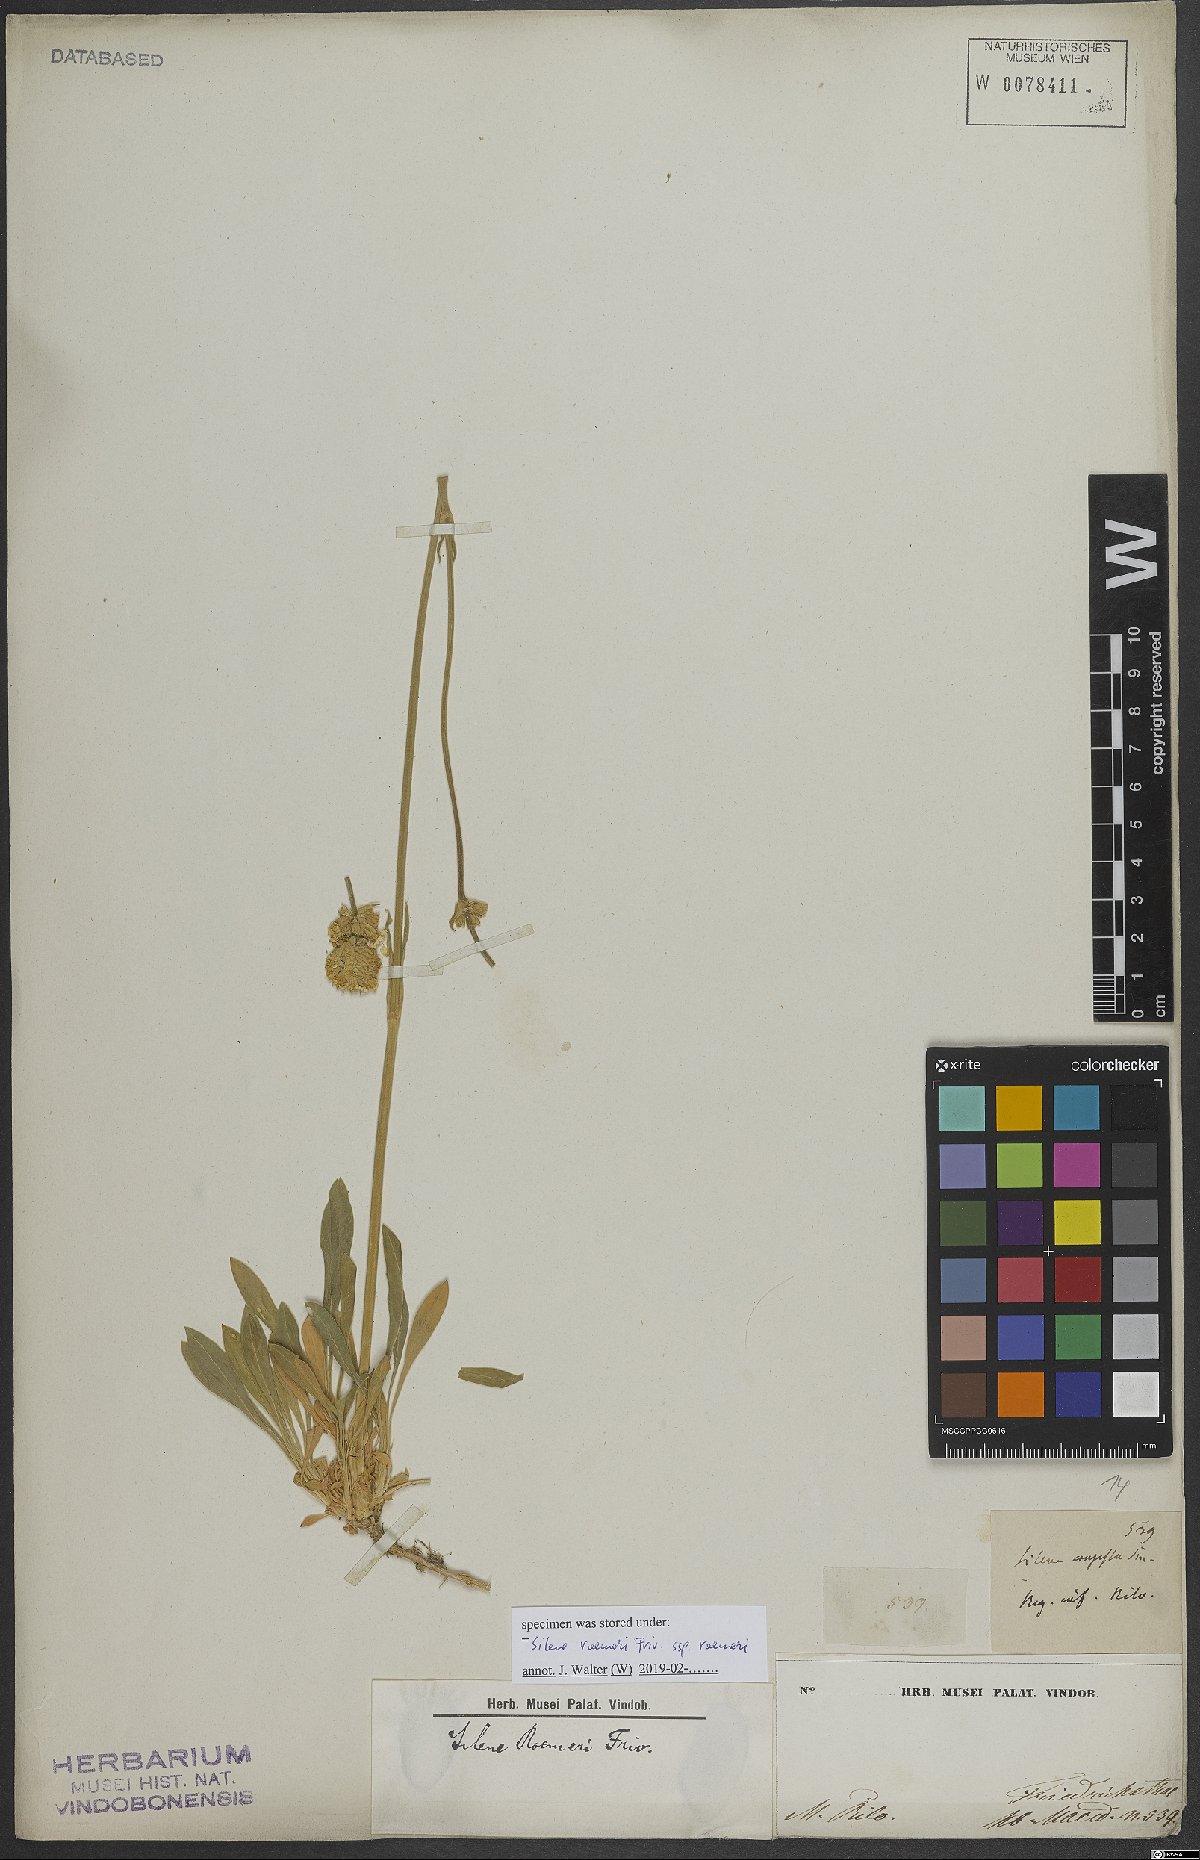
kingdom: Plantae
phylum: Tracheophyta
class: Magnoliopsida
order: Caryophyllales
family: Caryophyllaceae
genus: Silene
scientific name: Silene roemeri
